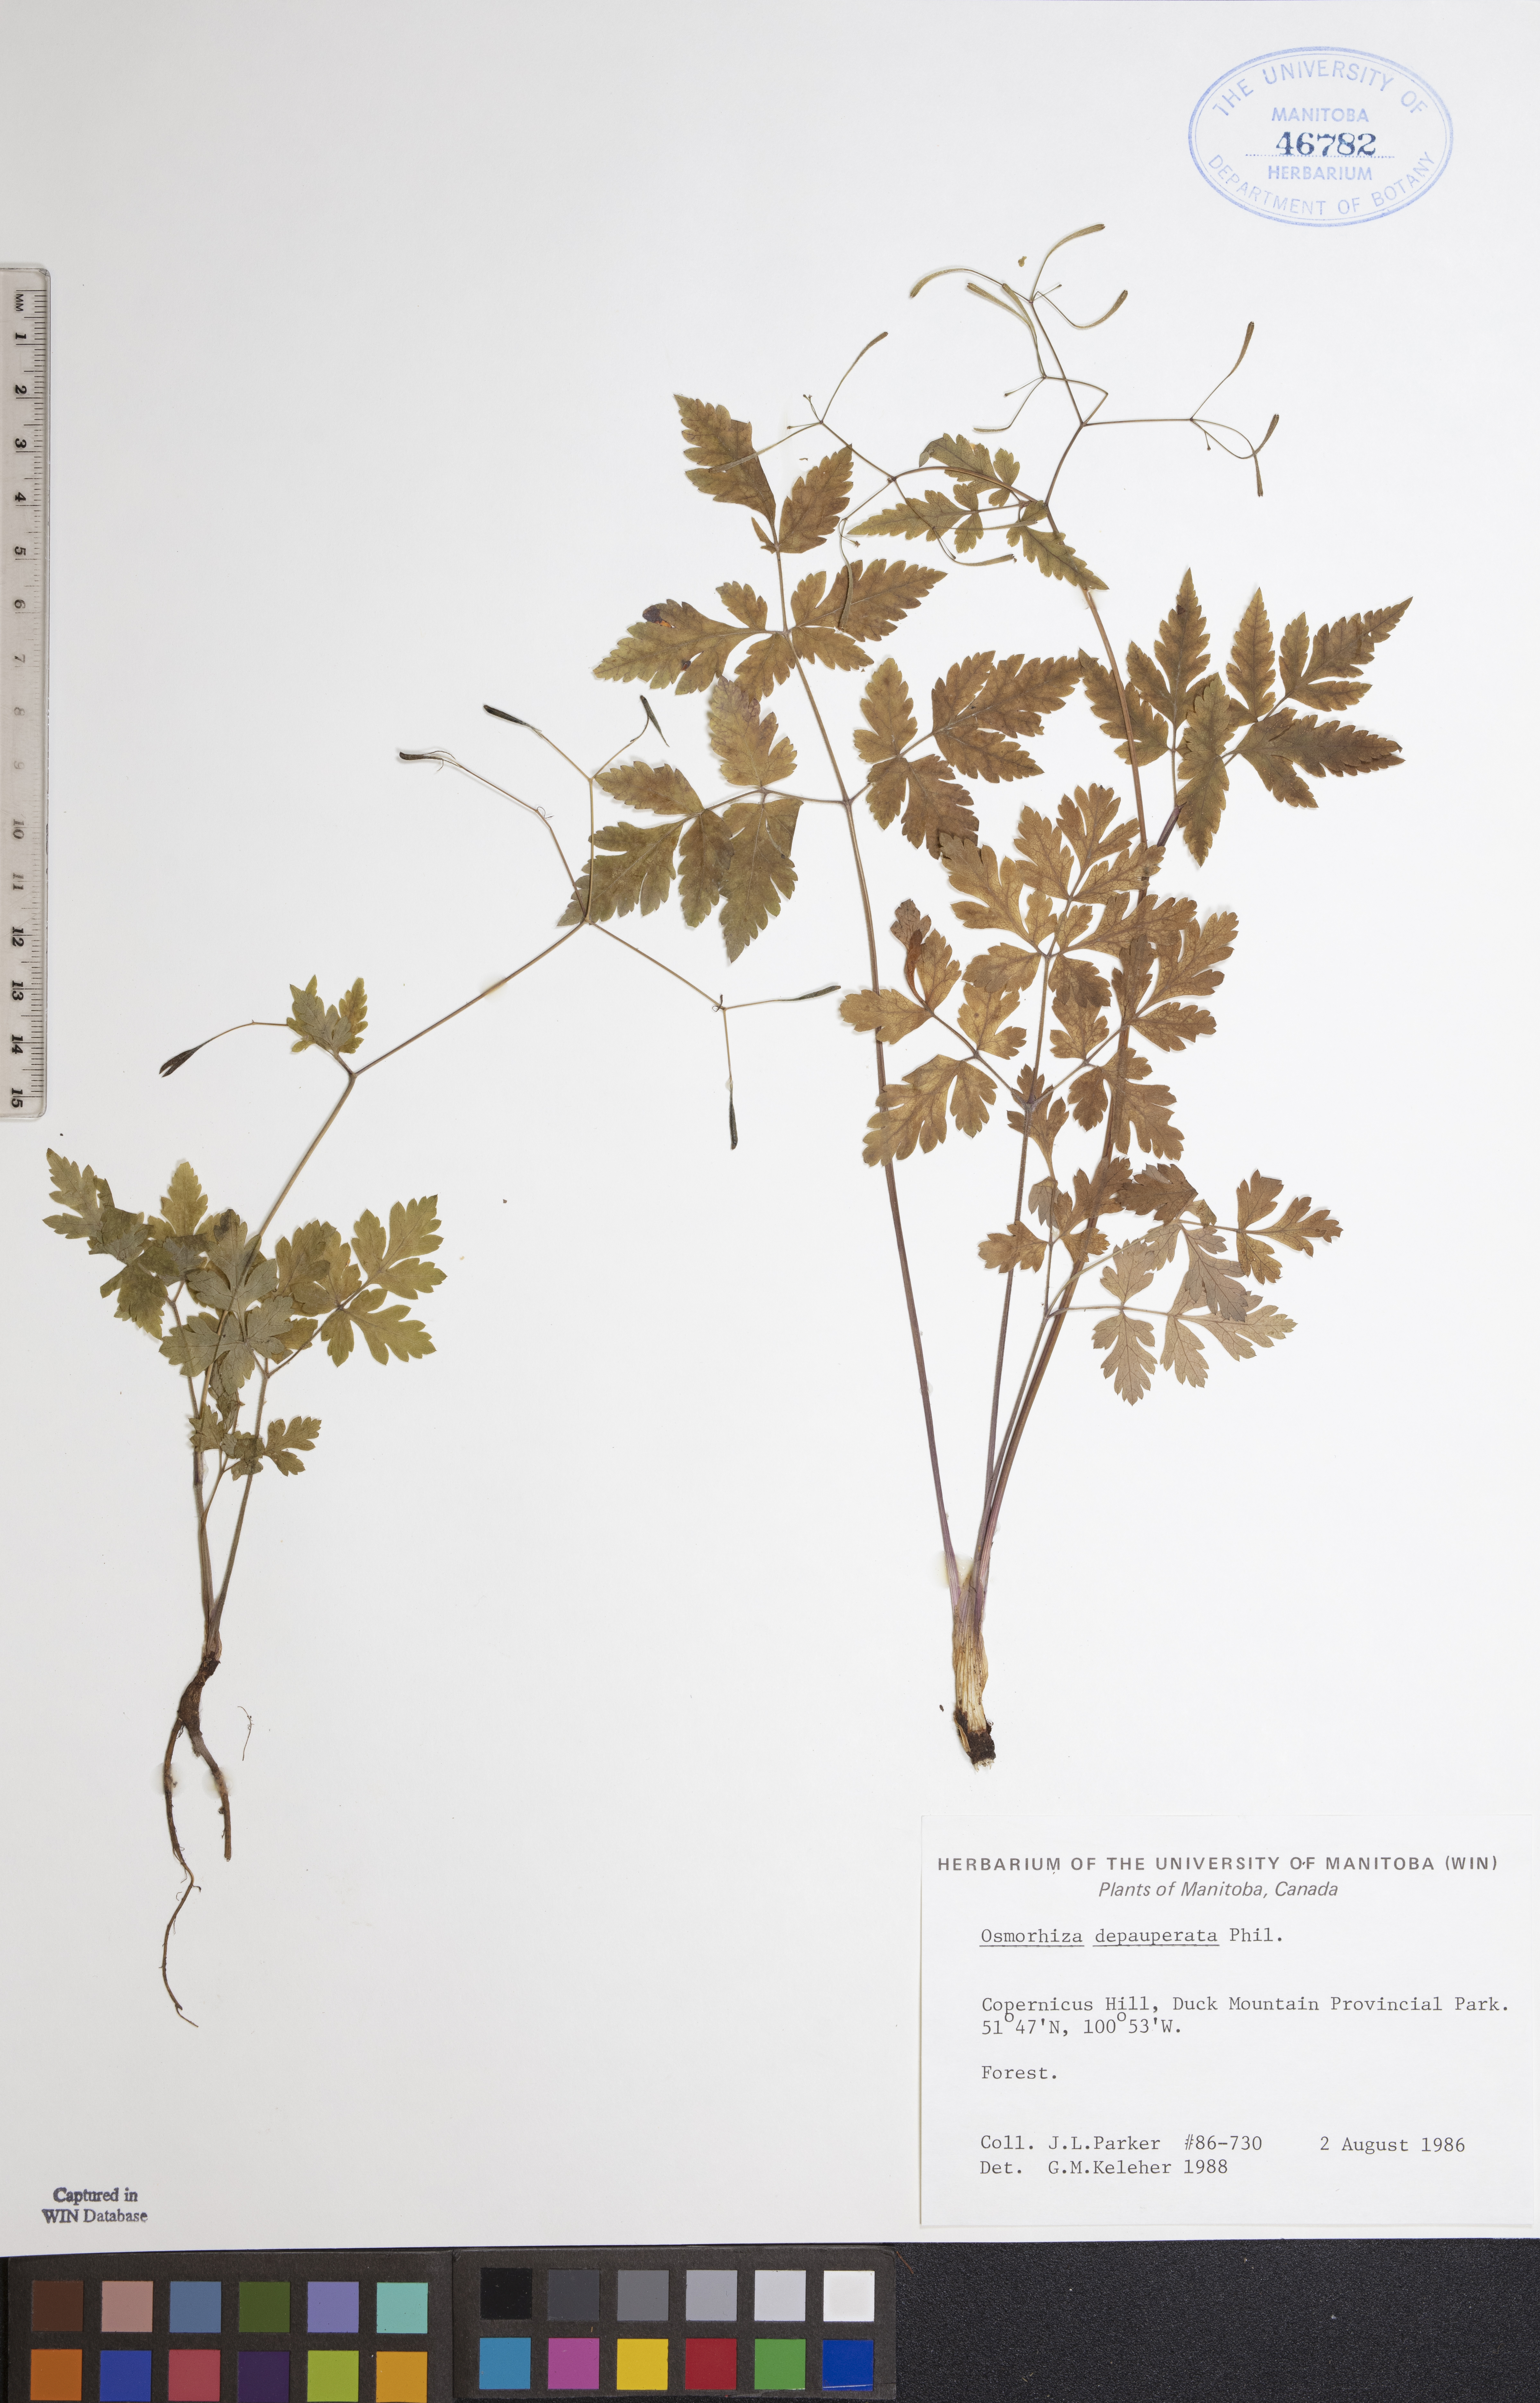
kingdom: Plantae
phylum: Tracheophyta
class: Magnoliopsida
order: Apiales
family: Apiaceae
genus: Osmorhiza
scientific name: Osmorhiza depauperata
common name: Blunt sweet cicely
